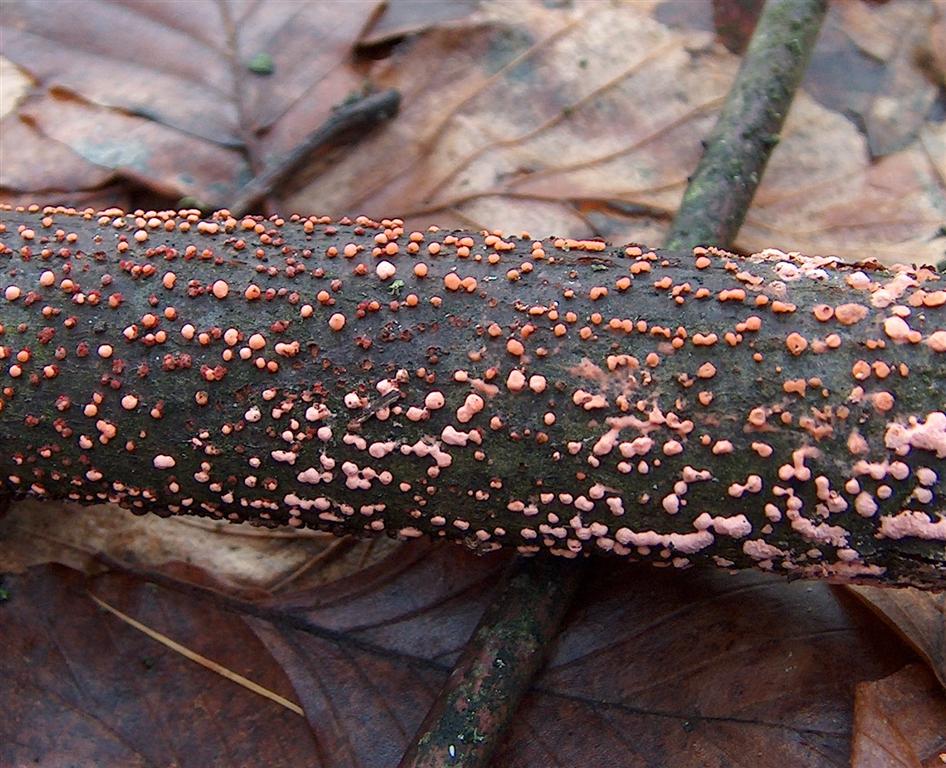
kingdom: Fungi
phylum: Ascomycota
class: Sordariomycetes
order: Hypocreales
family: Nectriaceae
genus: Nectria
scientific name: Nectria cinnabarina
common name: almindelig cinnobersvamp
